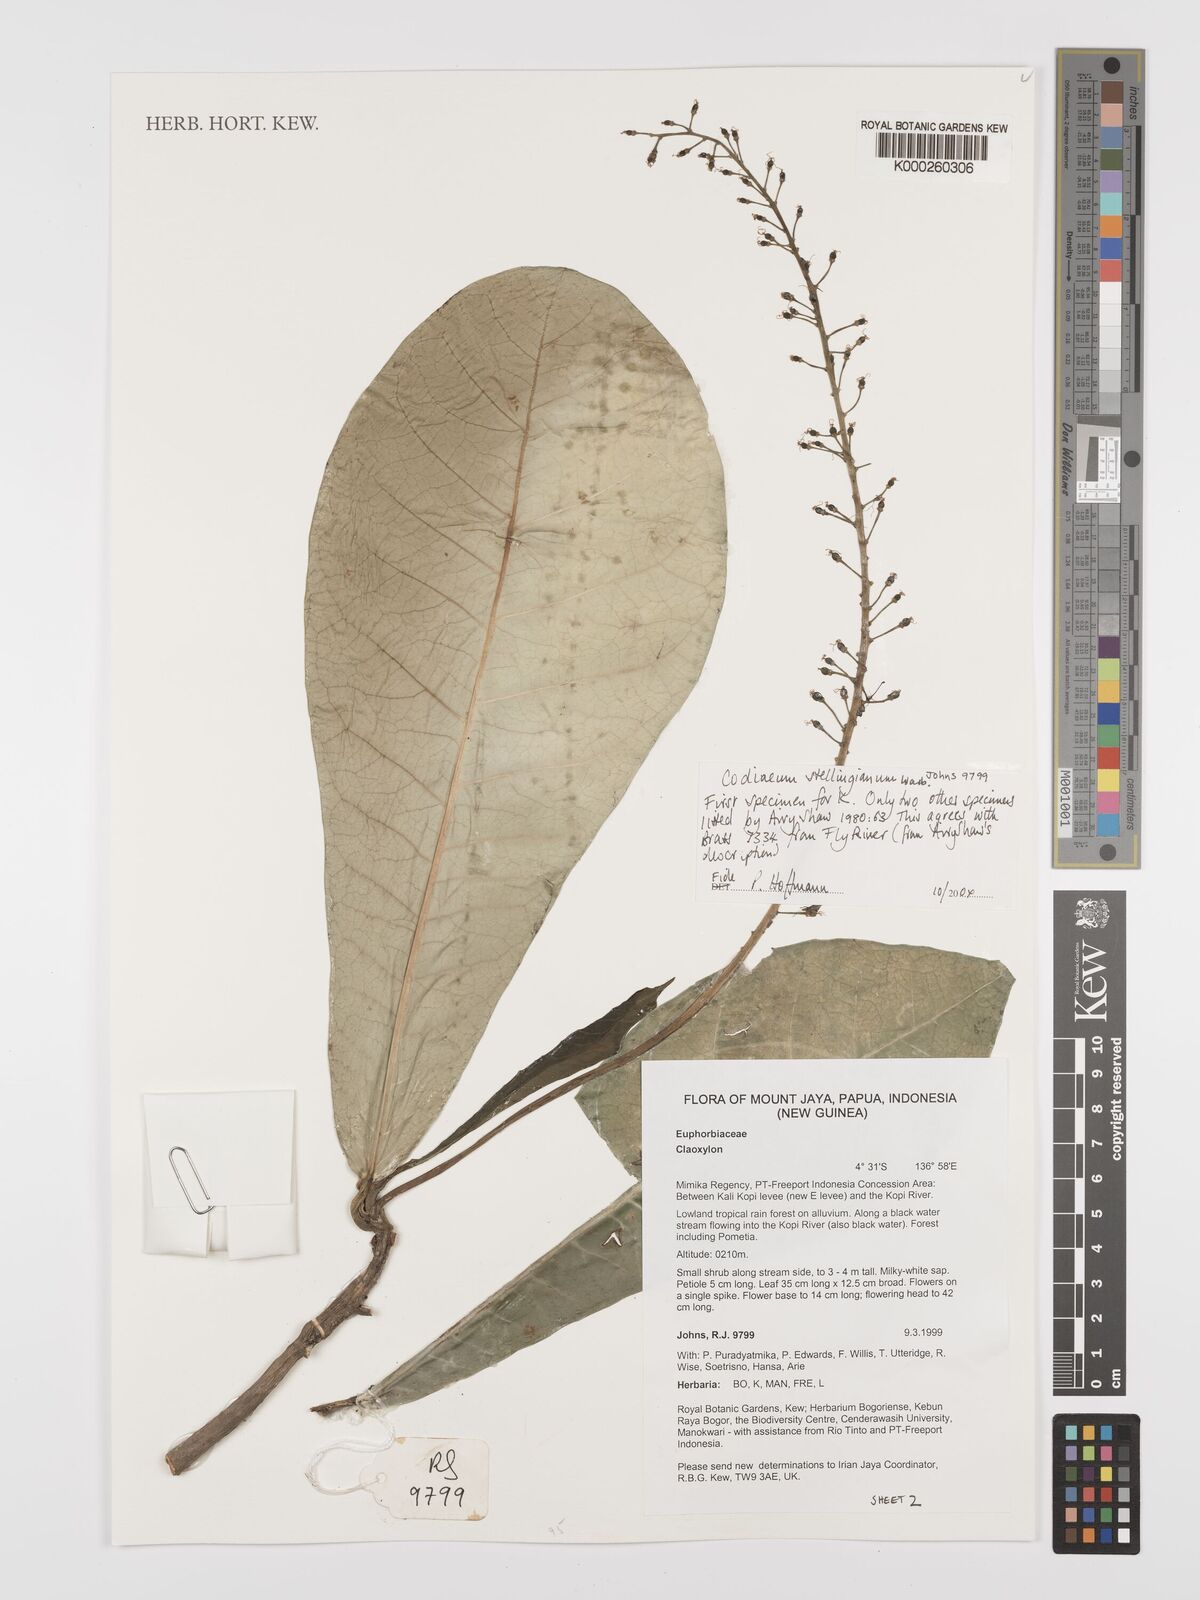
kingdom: Plantae
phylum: Tracheophyta
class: Magnoliopsida
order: Malpighiales
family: Euphorbiaceae
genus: Codiaeum
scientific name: Codiaeum stellingianum
